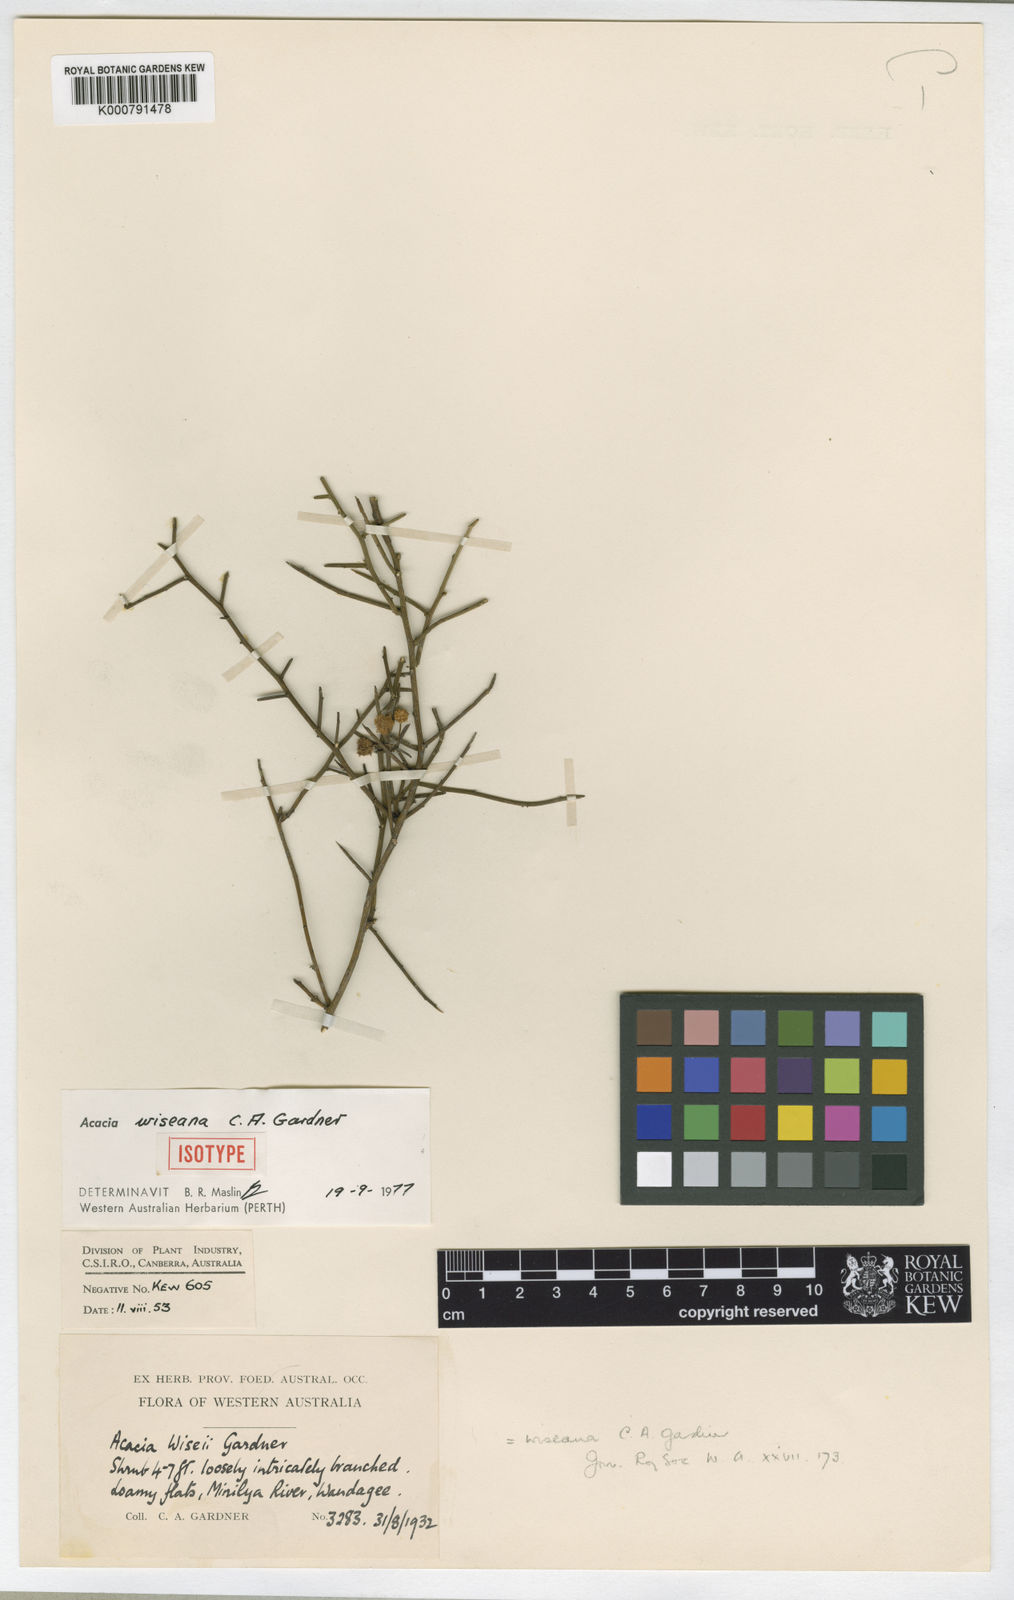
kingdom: Plantae
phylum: Tracheophyta
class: Magnoliopsida
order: Fabales
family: Fabaceae
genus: Acacia
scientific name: Acacia exocarpoides
